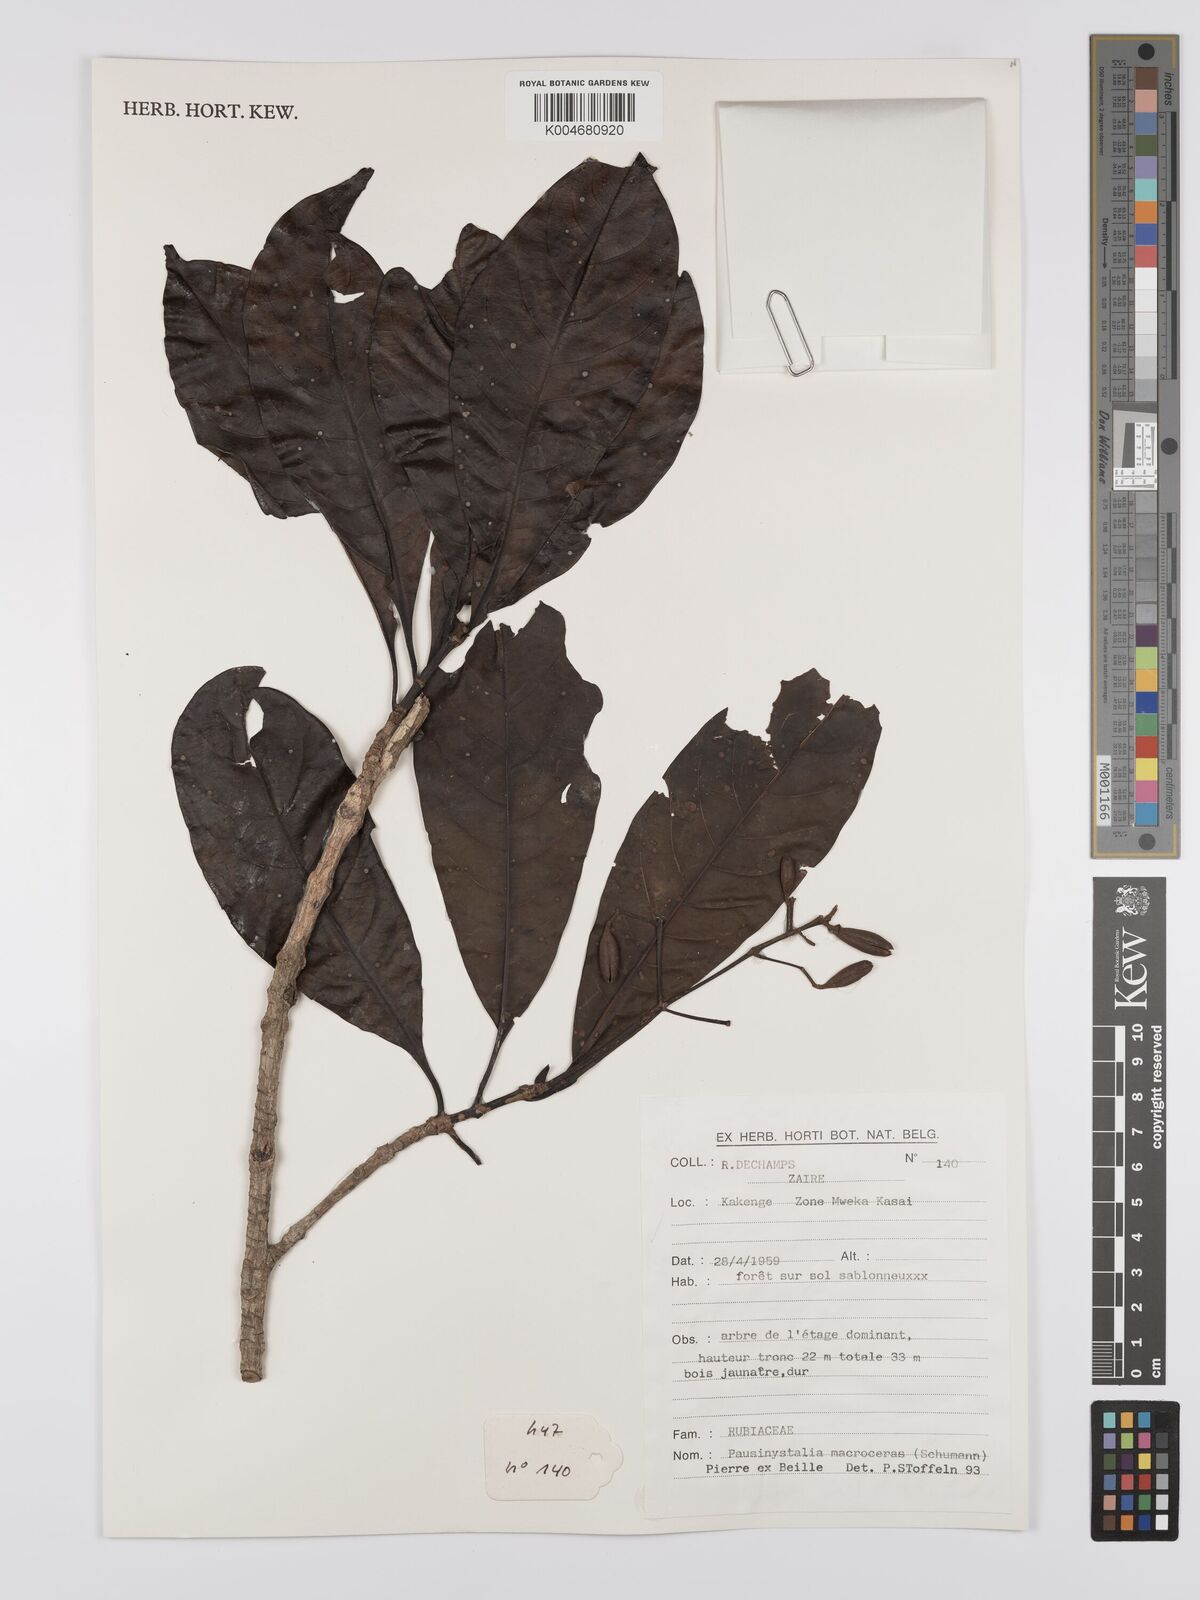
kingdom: Plantae
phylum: Tracheophyta
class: Magnoliopsida
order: Gentianales
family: Rubiaceae
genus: Corynanthe
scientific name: Corynanthe macroceras
